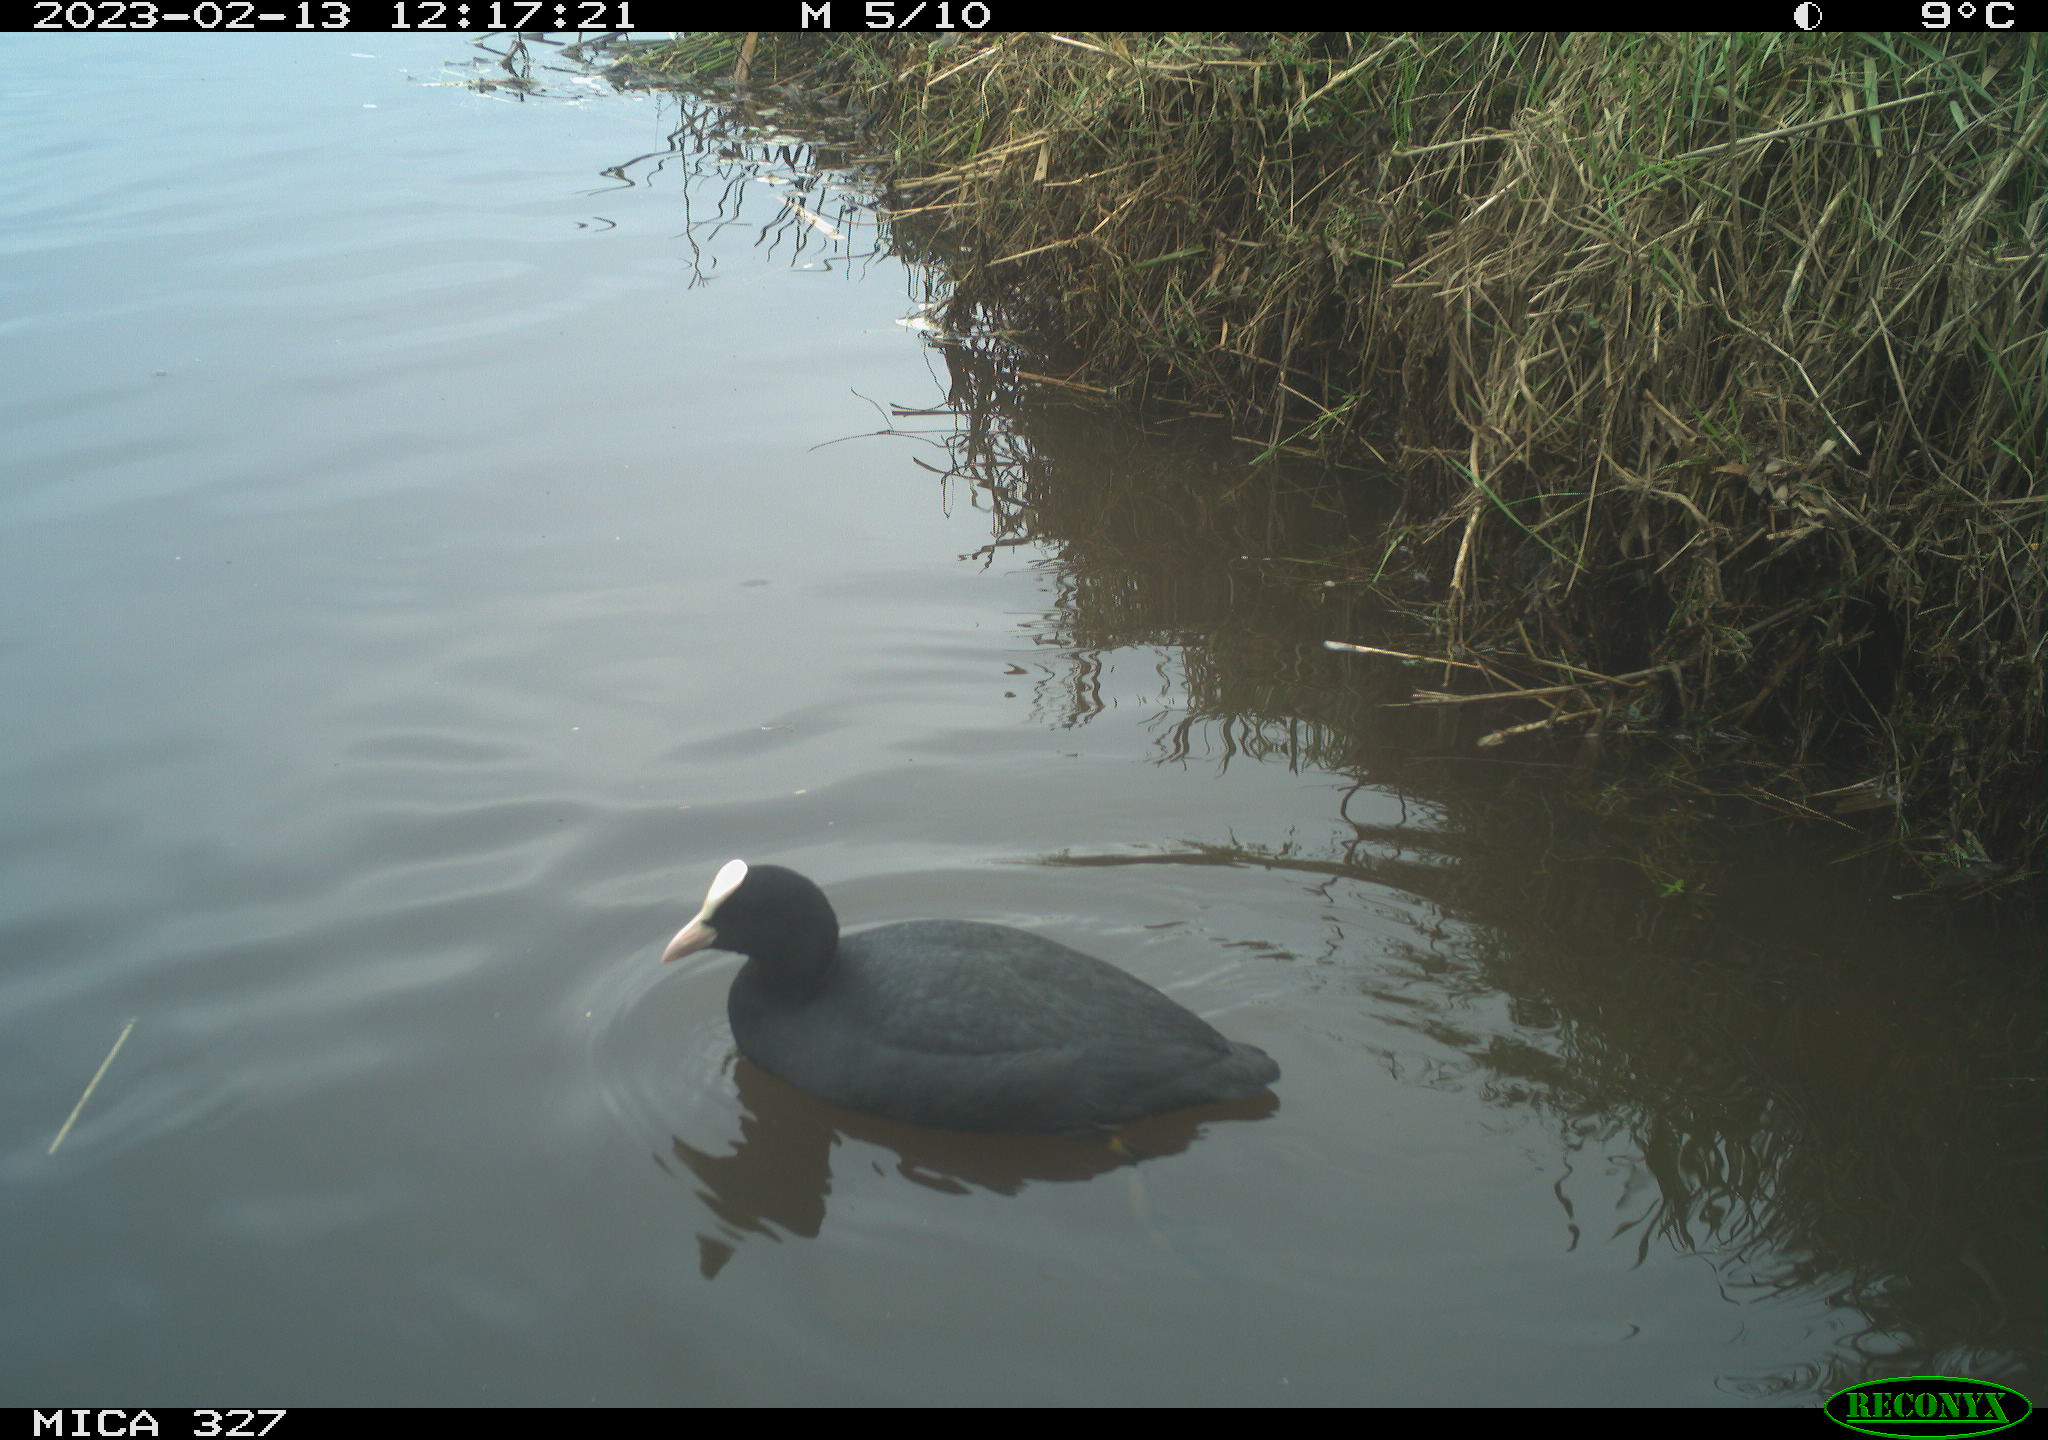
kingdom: Animalia
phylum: Chordata
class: Aves
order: Gruiformes
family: Rallidae
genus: Fulica
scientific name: Fulica atra
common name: Eurasian coot
